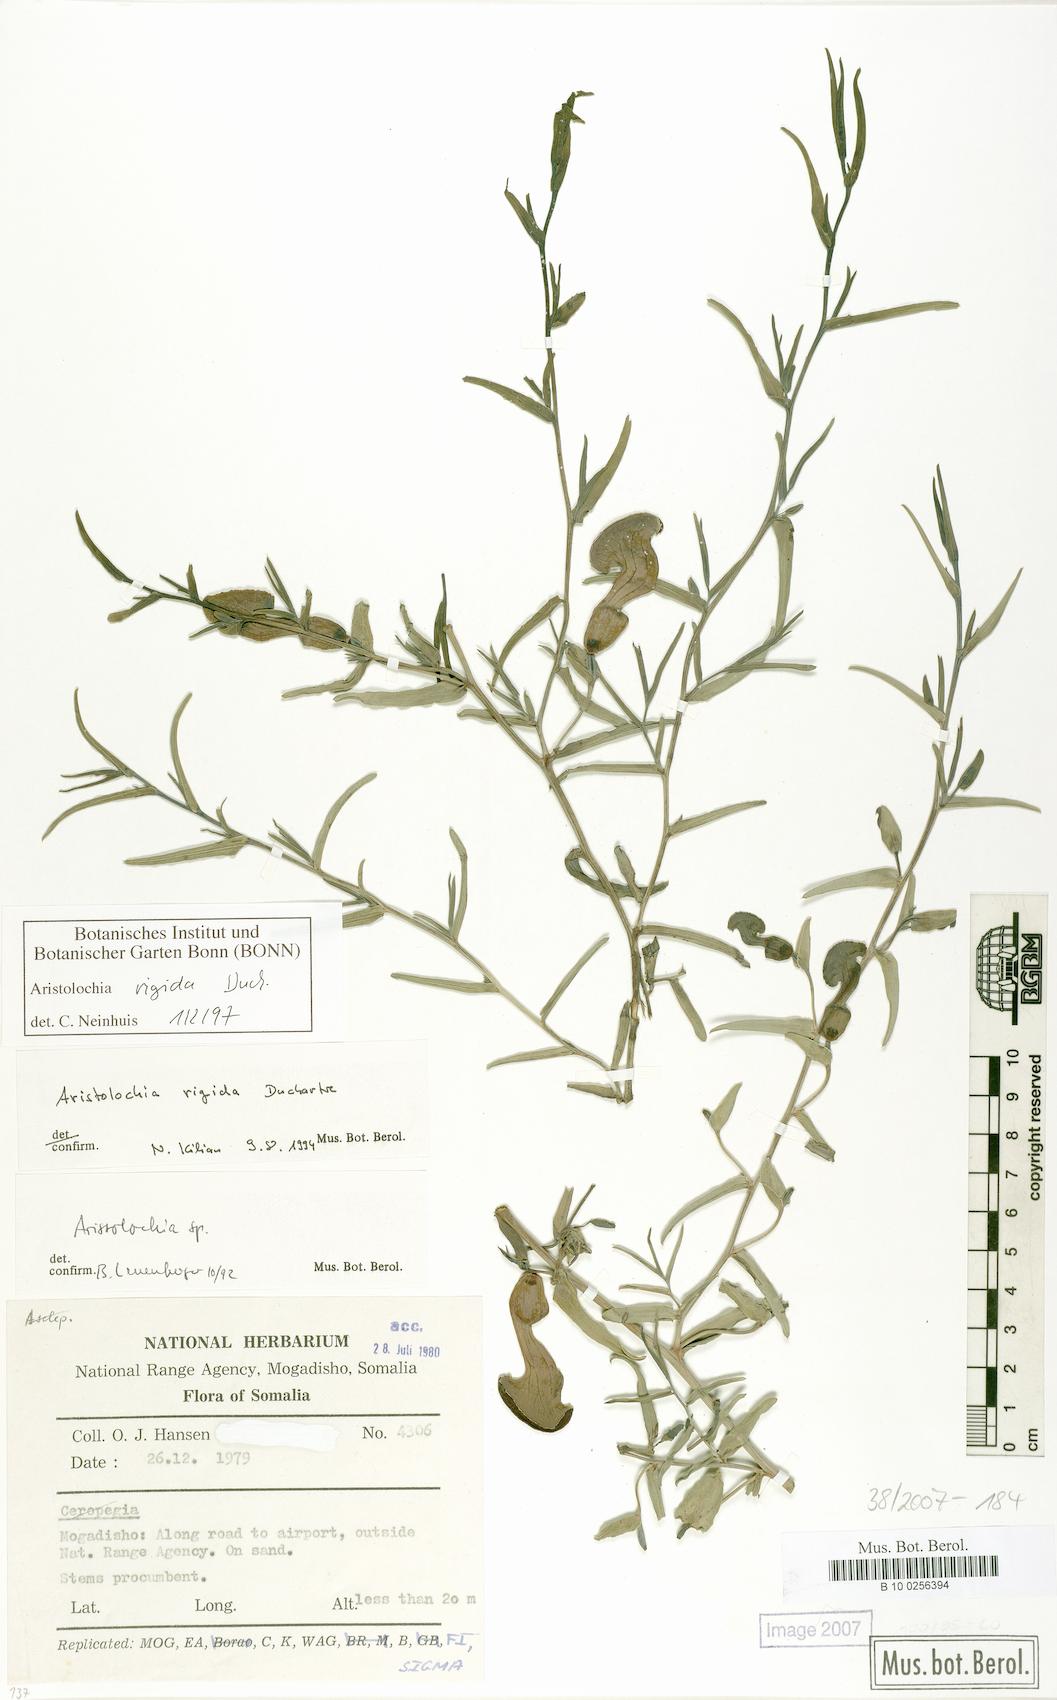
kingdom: Plantae
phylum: Tracheophyta
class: Magnoliopsida
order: Piperales
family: Aristolochiaceae
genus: Aristolochia
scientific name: Aristolochia rigida
